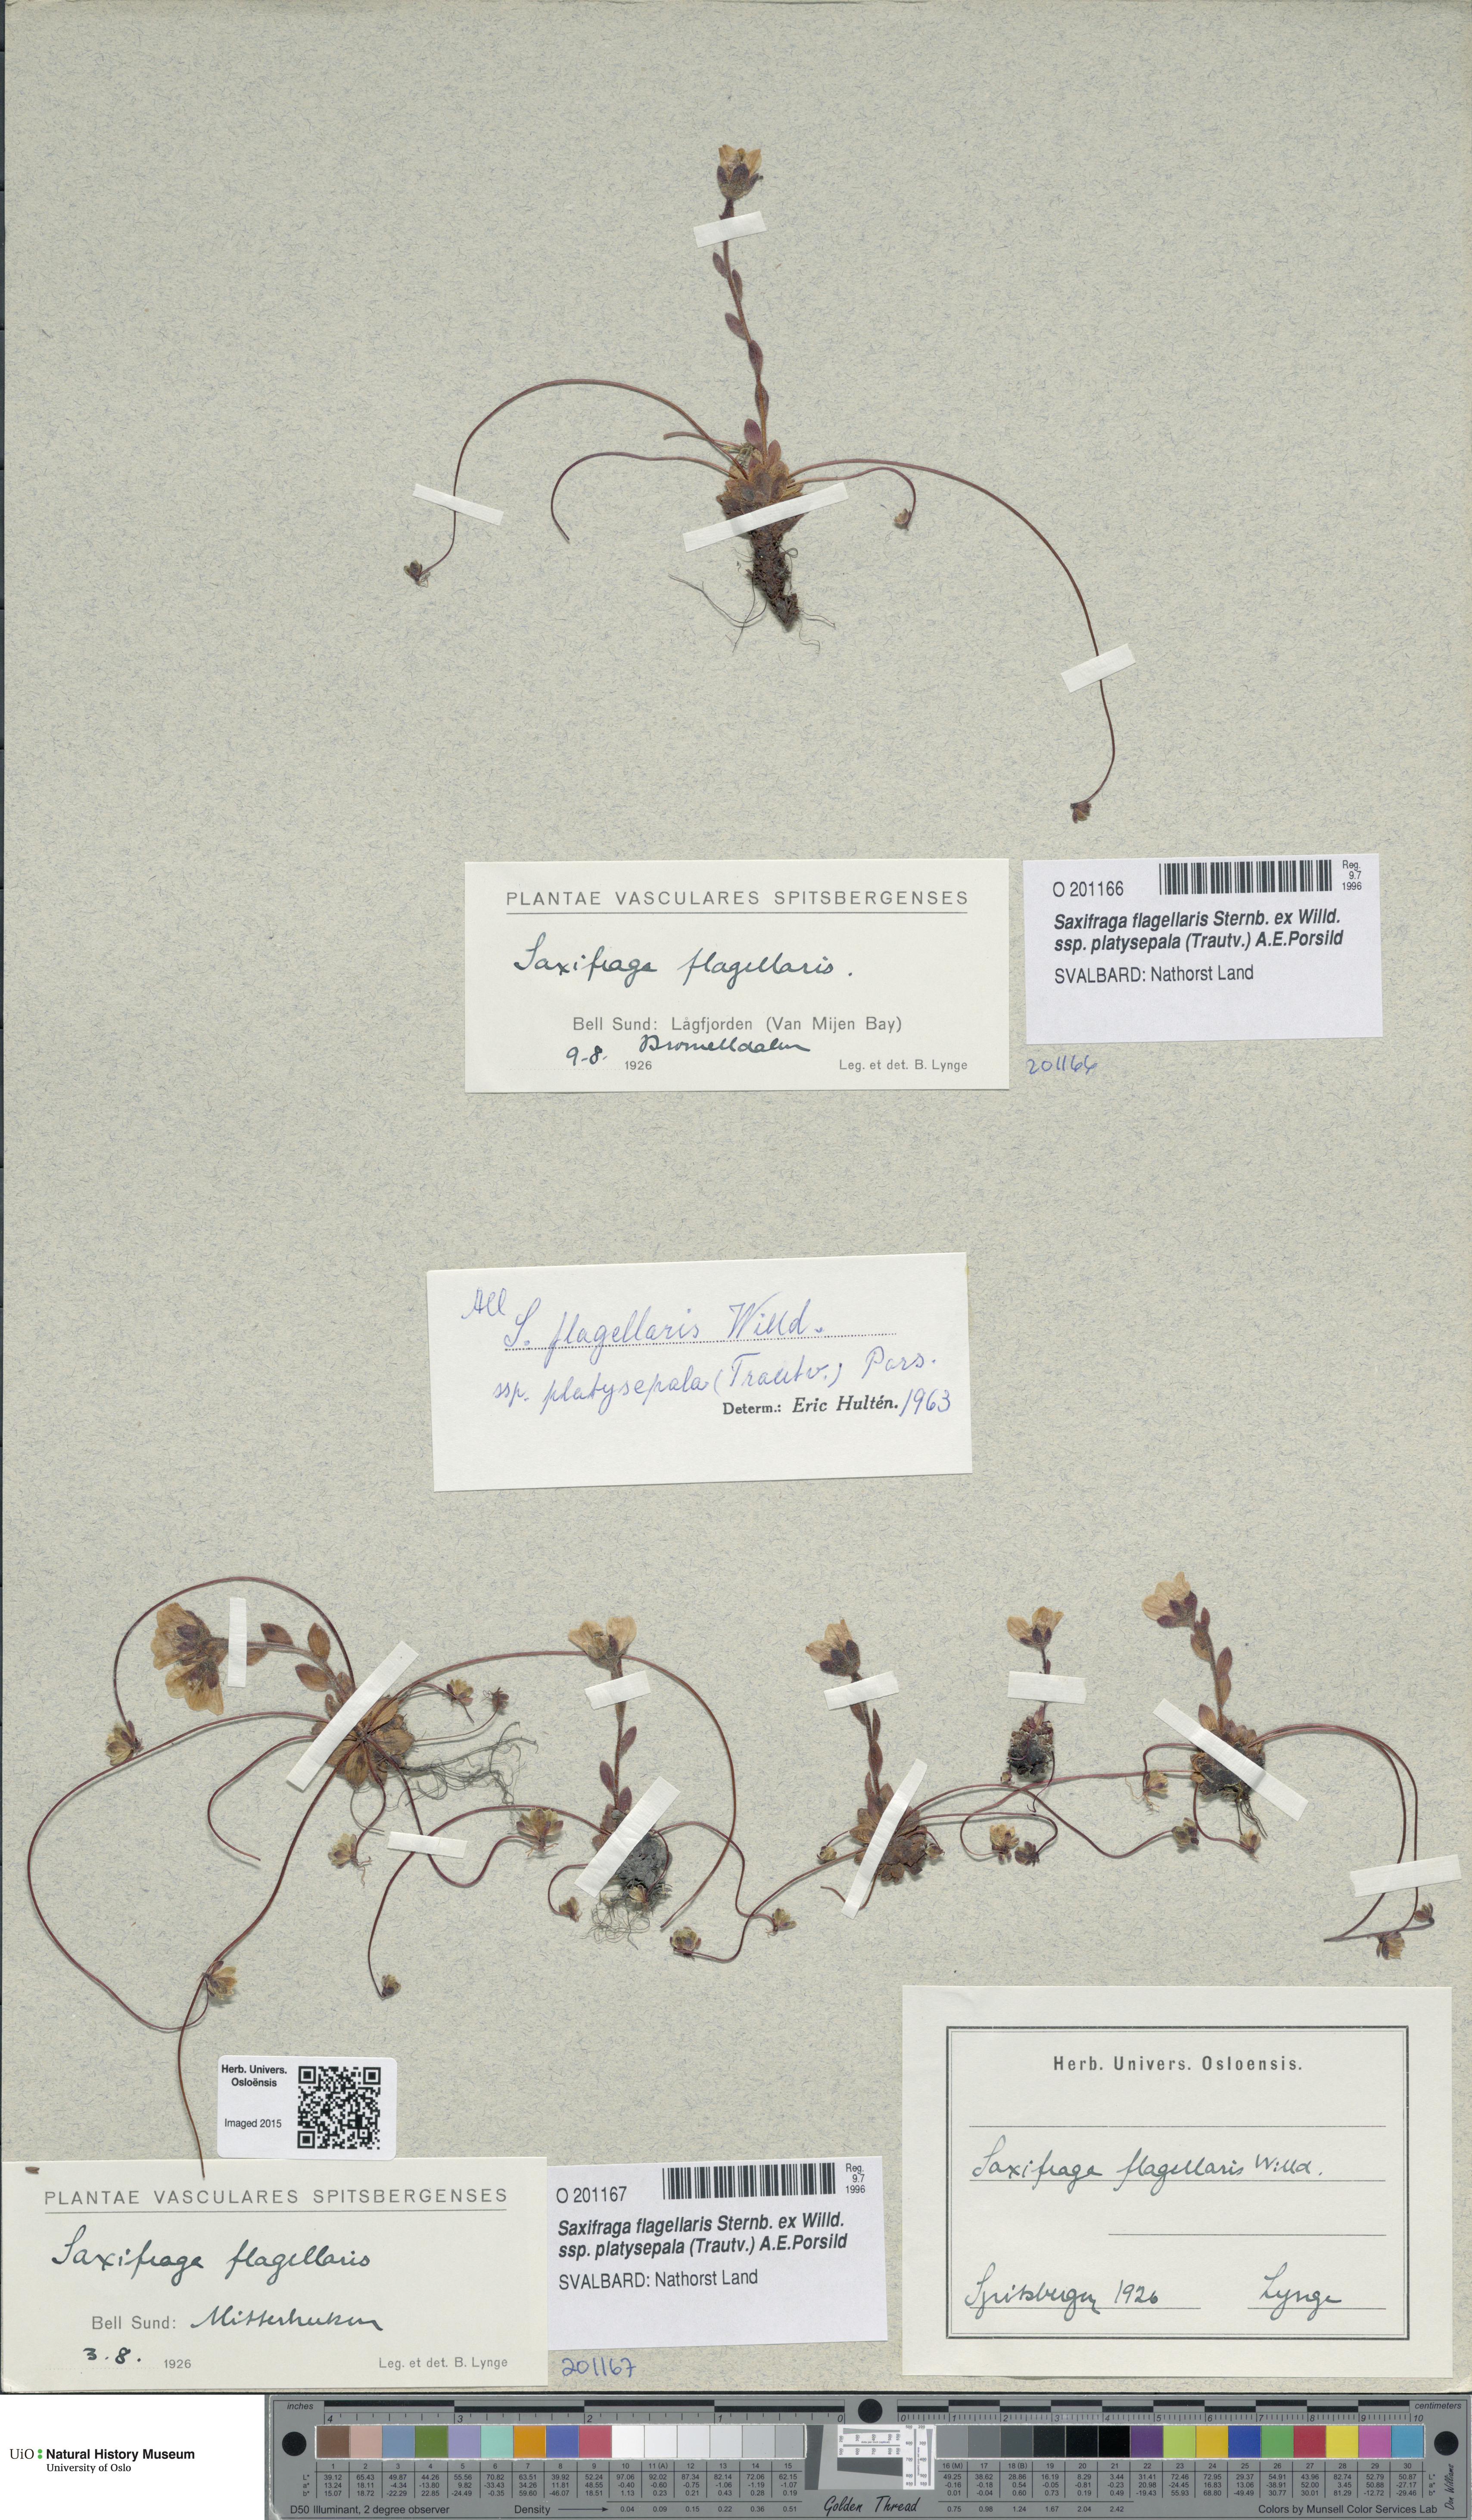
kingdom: Plantae
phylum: Tracheophyta
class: Magnoliopsida
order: Saxifragales
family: Saxifragaceae
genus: Saxifraga
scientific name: Saxifraga platysepala
